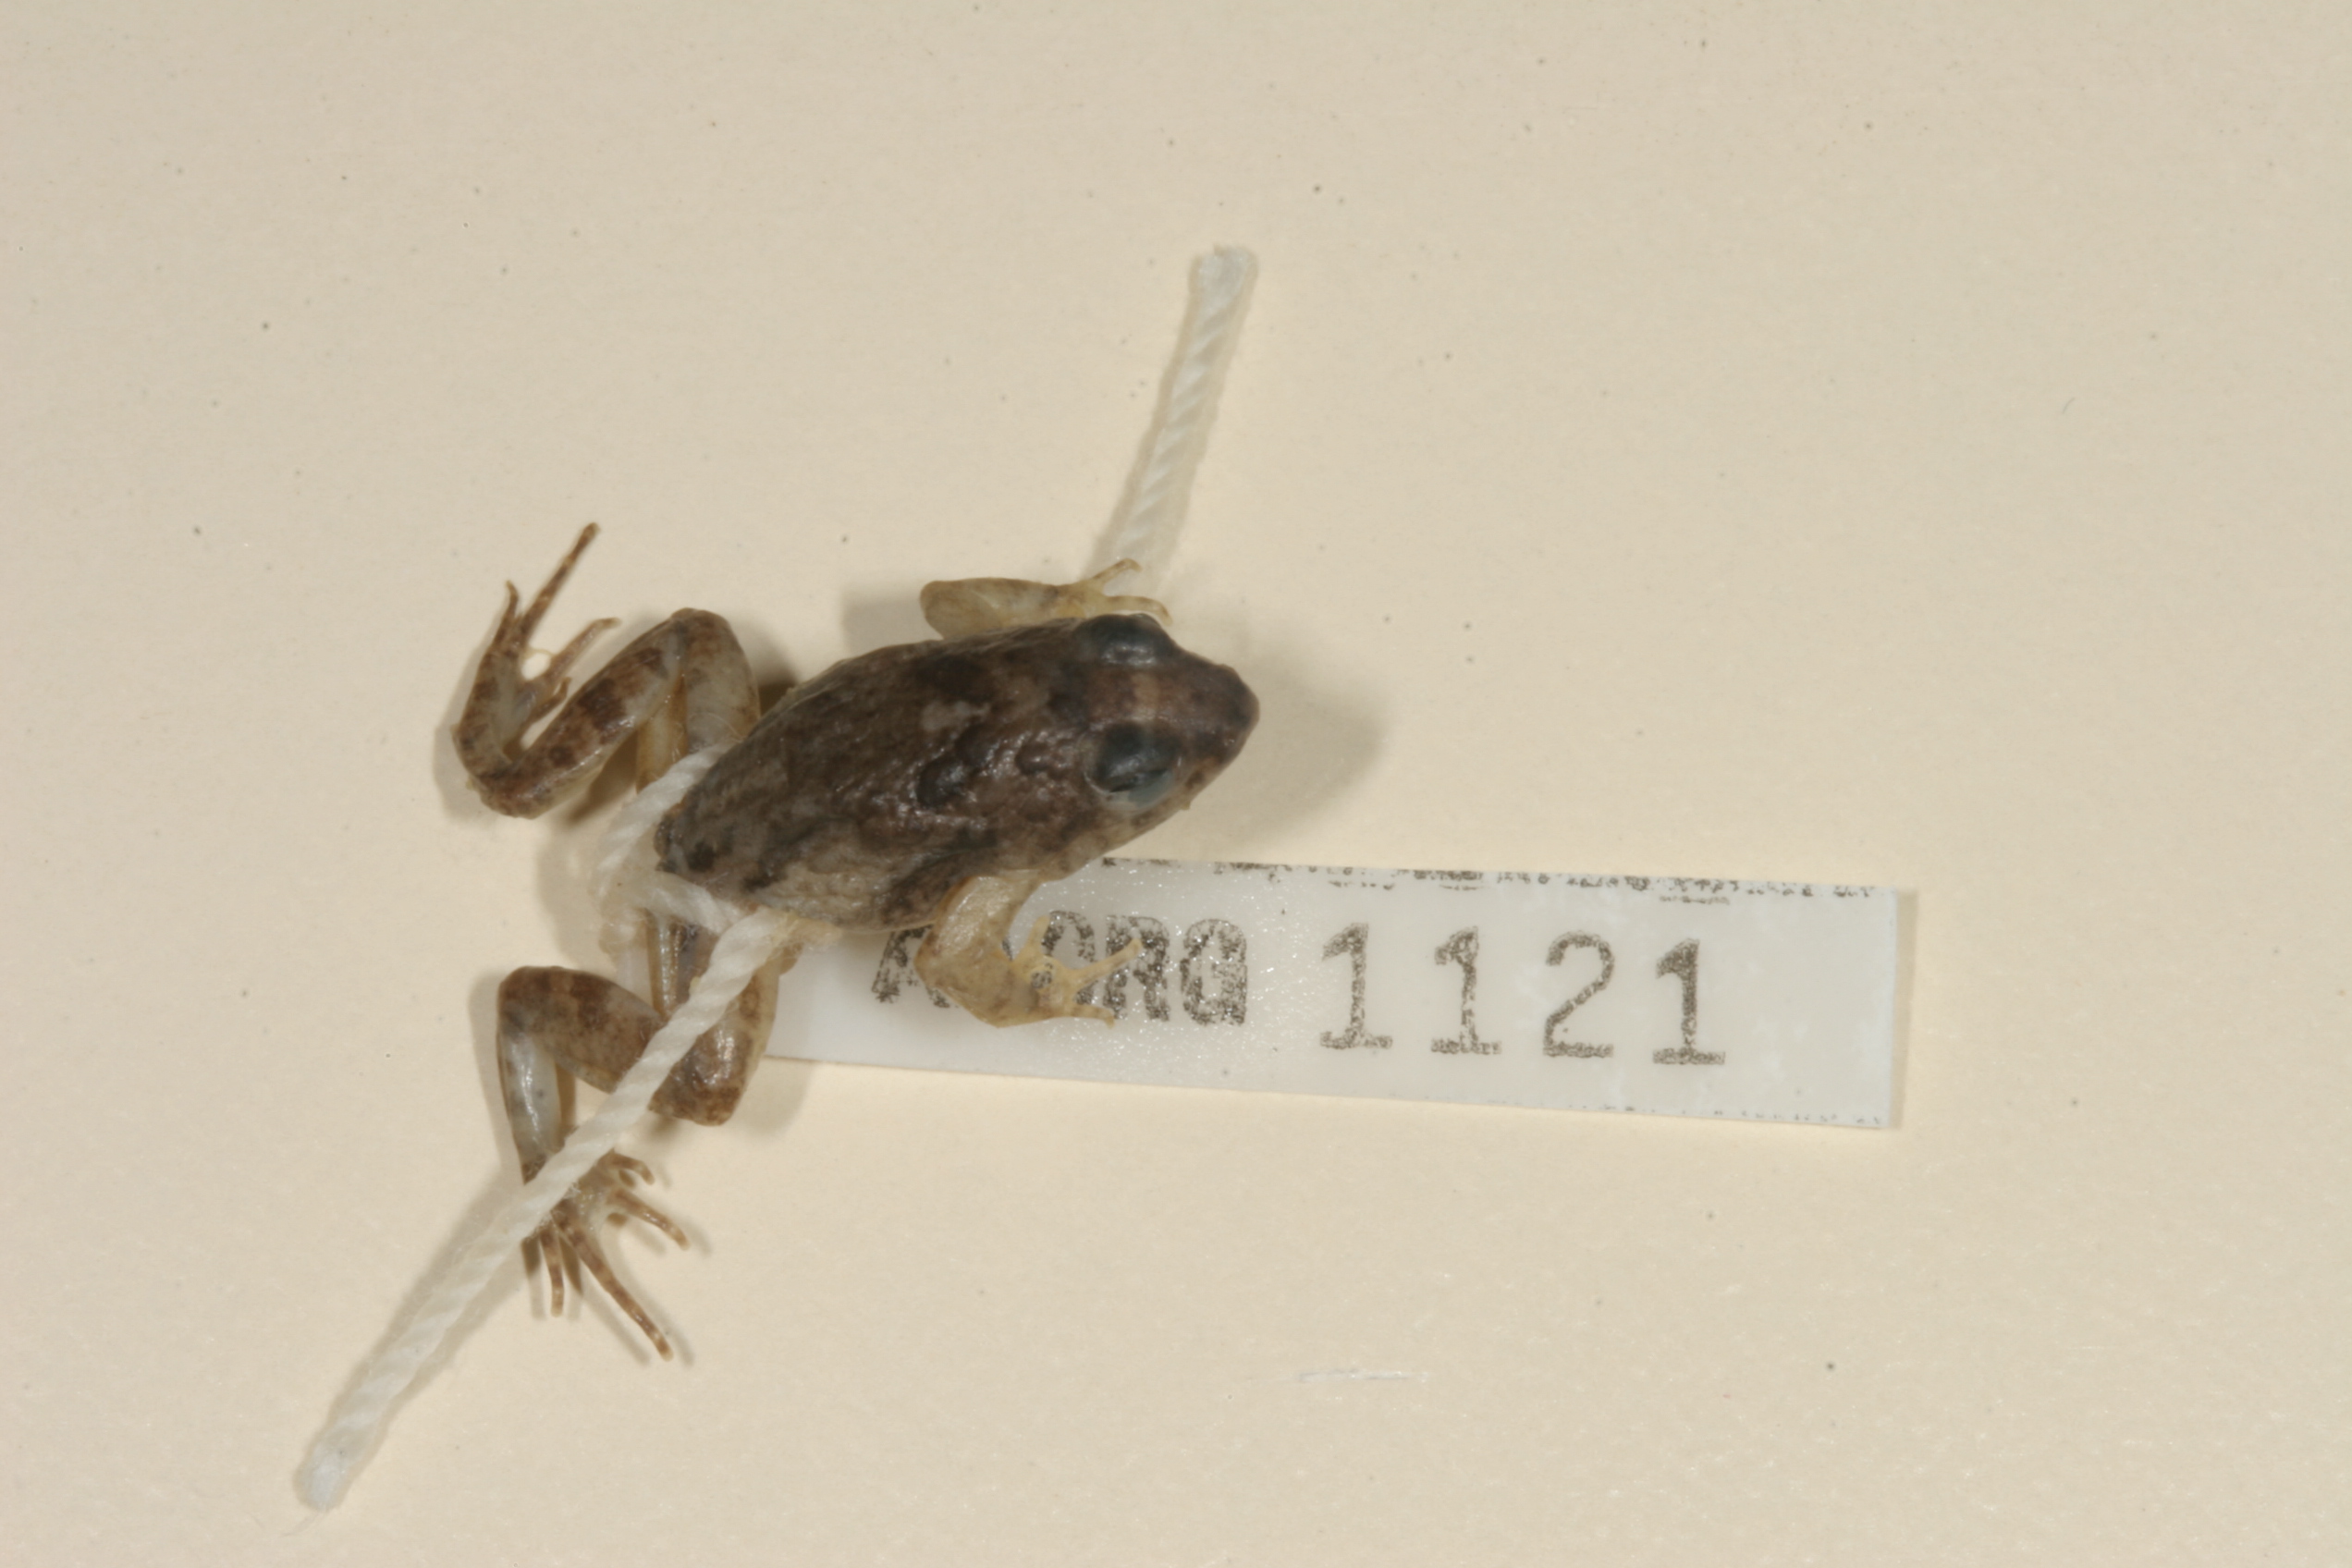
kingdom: Animalia
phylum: Chordata
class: Amphibia
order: Anura
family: Phrynobatrachidae
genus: Phrynobatrachus
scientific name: Phrynobatrachus mababiensis
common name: Dwarf puddle frog
